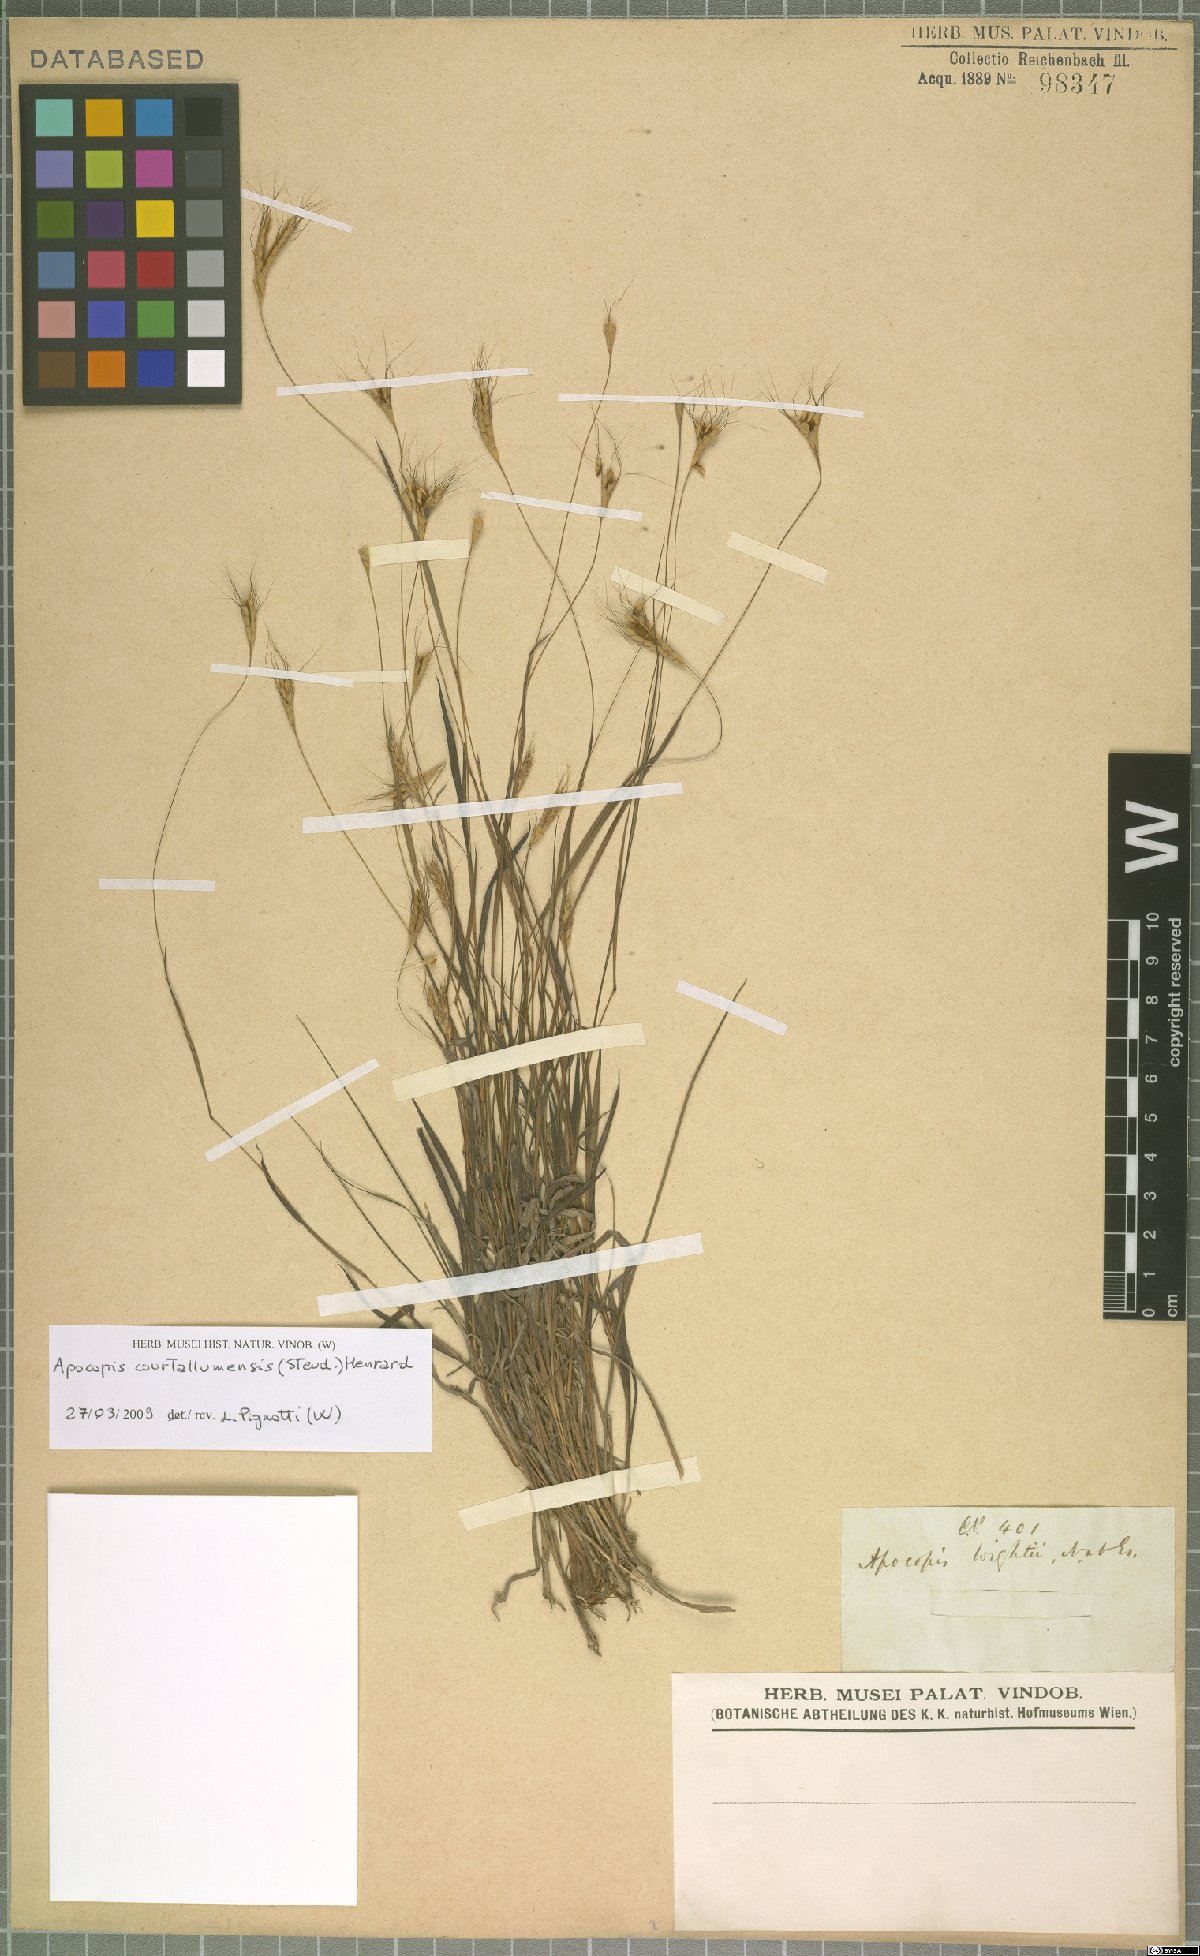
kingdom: Plantae
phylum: Tracheophyta
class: Liliopsida
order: Poales
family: Poaceae
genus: Apocopis
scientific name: Apocopis courtallumensis
